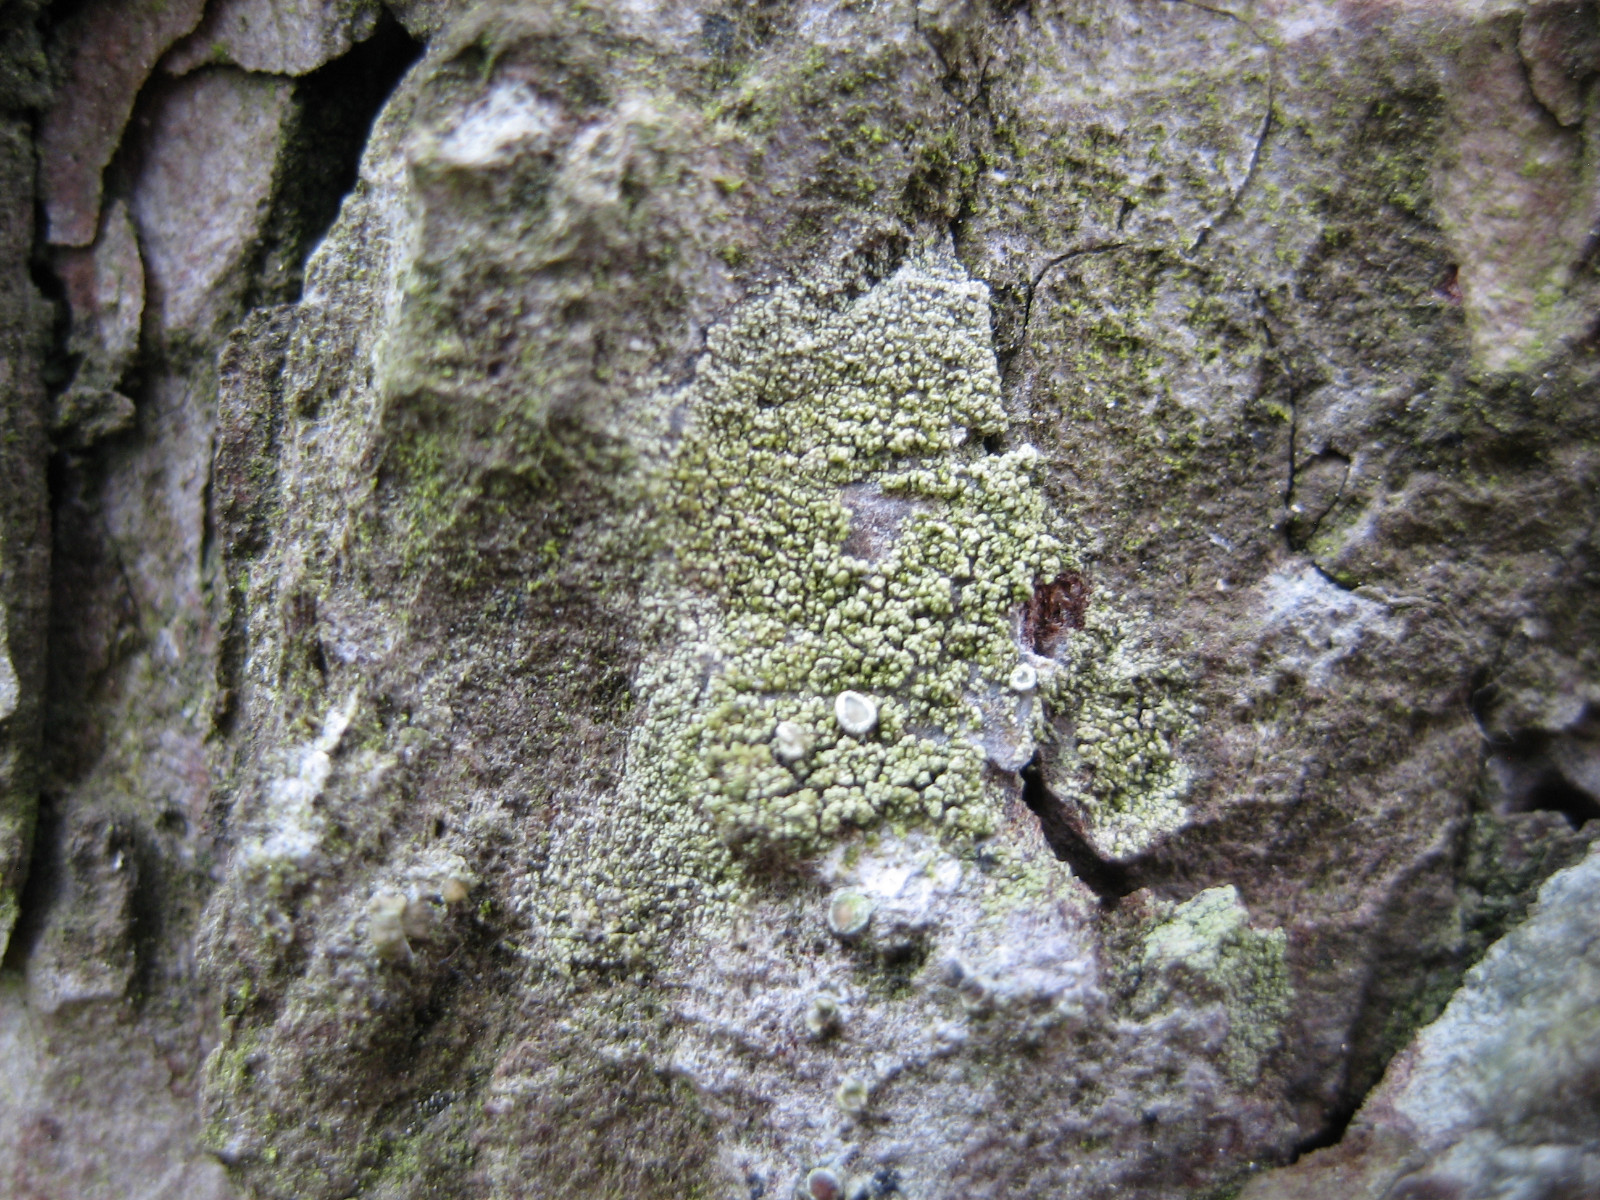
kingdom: Fungi
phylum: Ascomycota
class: Lecanoromycetes
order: Lecanorales
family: Lecanoraceae
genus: Straminella
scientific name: Straminella conizaeoides
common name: by-kantskivelav
